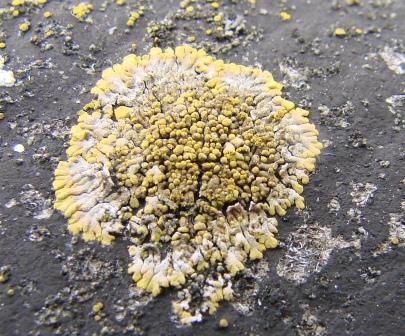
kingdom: Fungi
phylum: Ascomycota
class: Lecanoromycetes
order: Teloschistales
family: Teloschistaceae
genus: Calogaya
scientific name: Calogaya decipiens
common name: knudret orangelav
